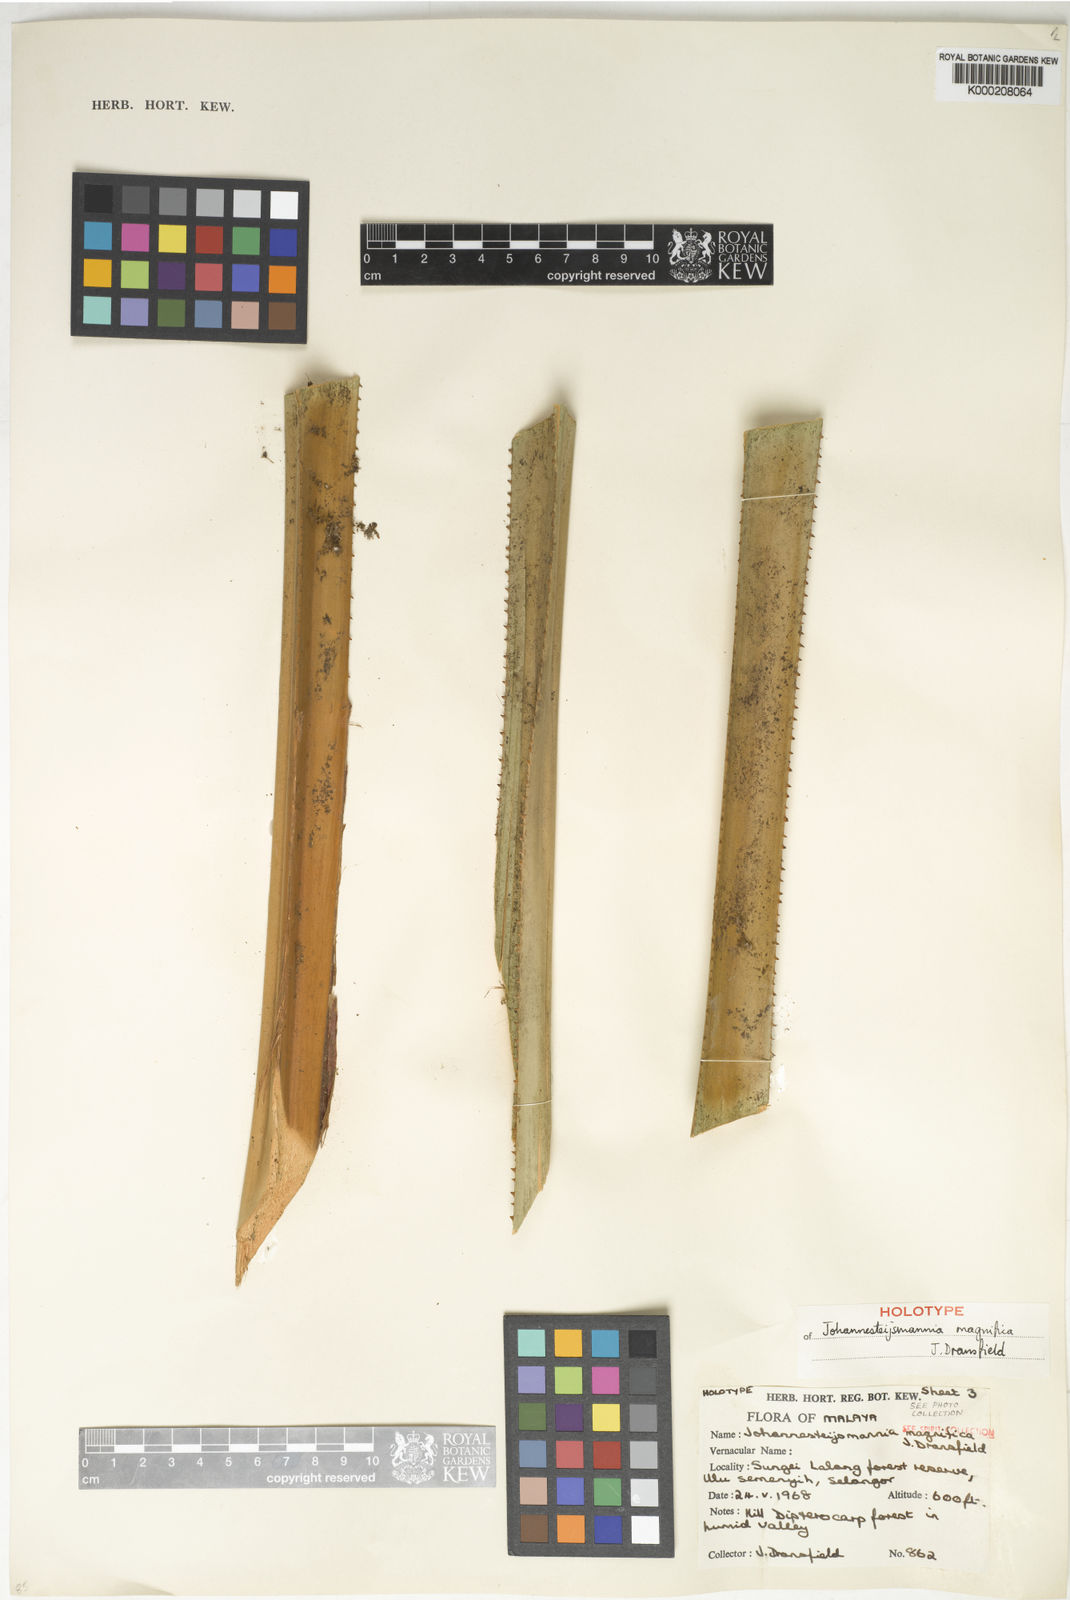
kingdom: Plantae
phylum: Tracheophyta
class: Liliopsida
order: Arecales
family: Arecaceae
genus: Johannesteijsmannia
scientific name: Johannesteijsmannia magnifica
